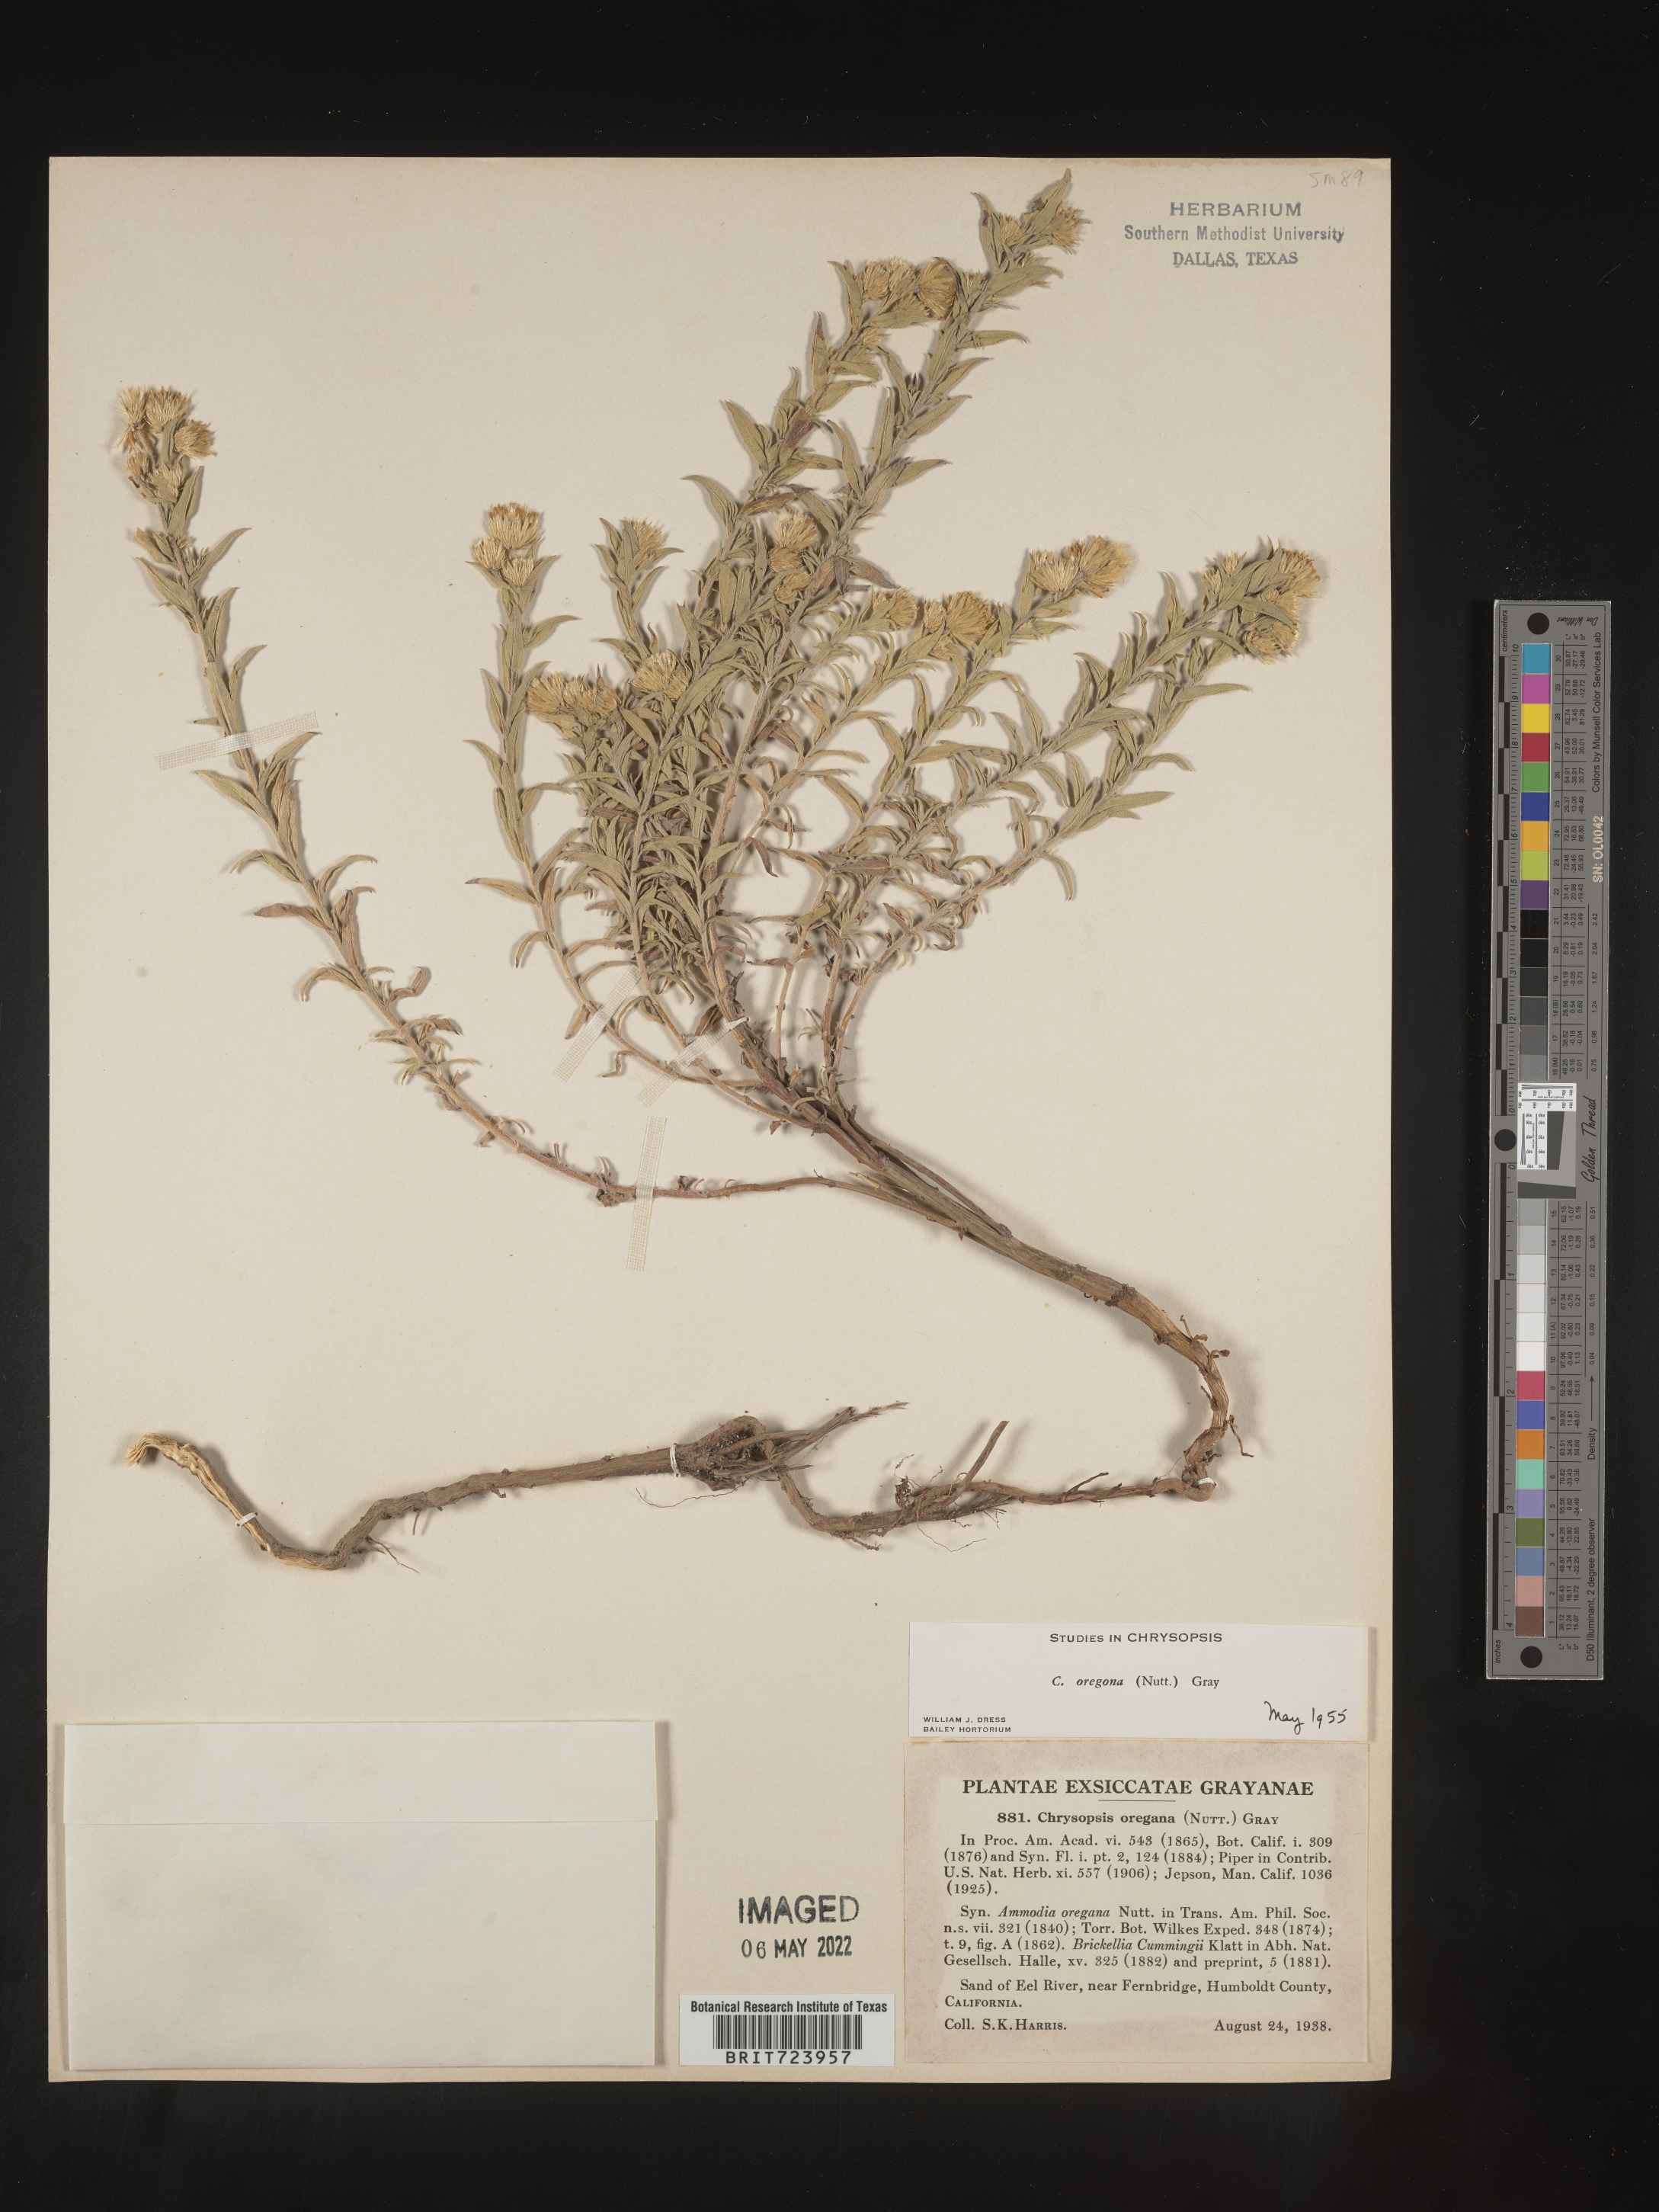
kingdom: Plantae
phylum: Tracheophyta
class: Magnoliopsida
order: Asterales
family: Asteraceae
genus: Heterotheca
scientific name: Heterotheca oregona
